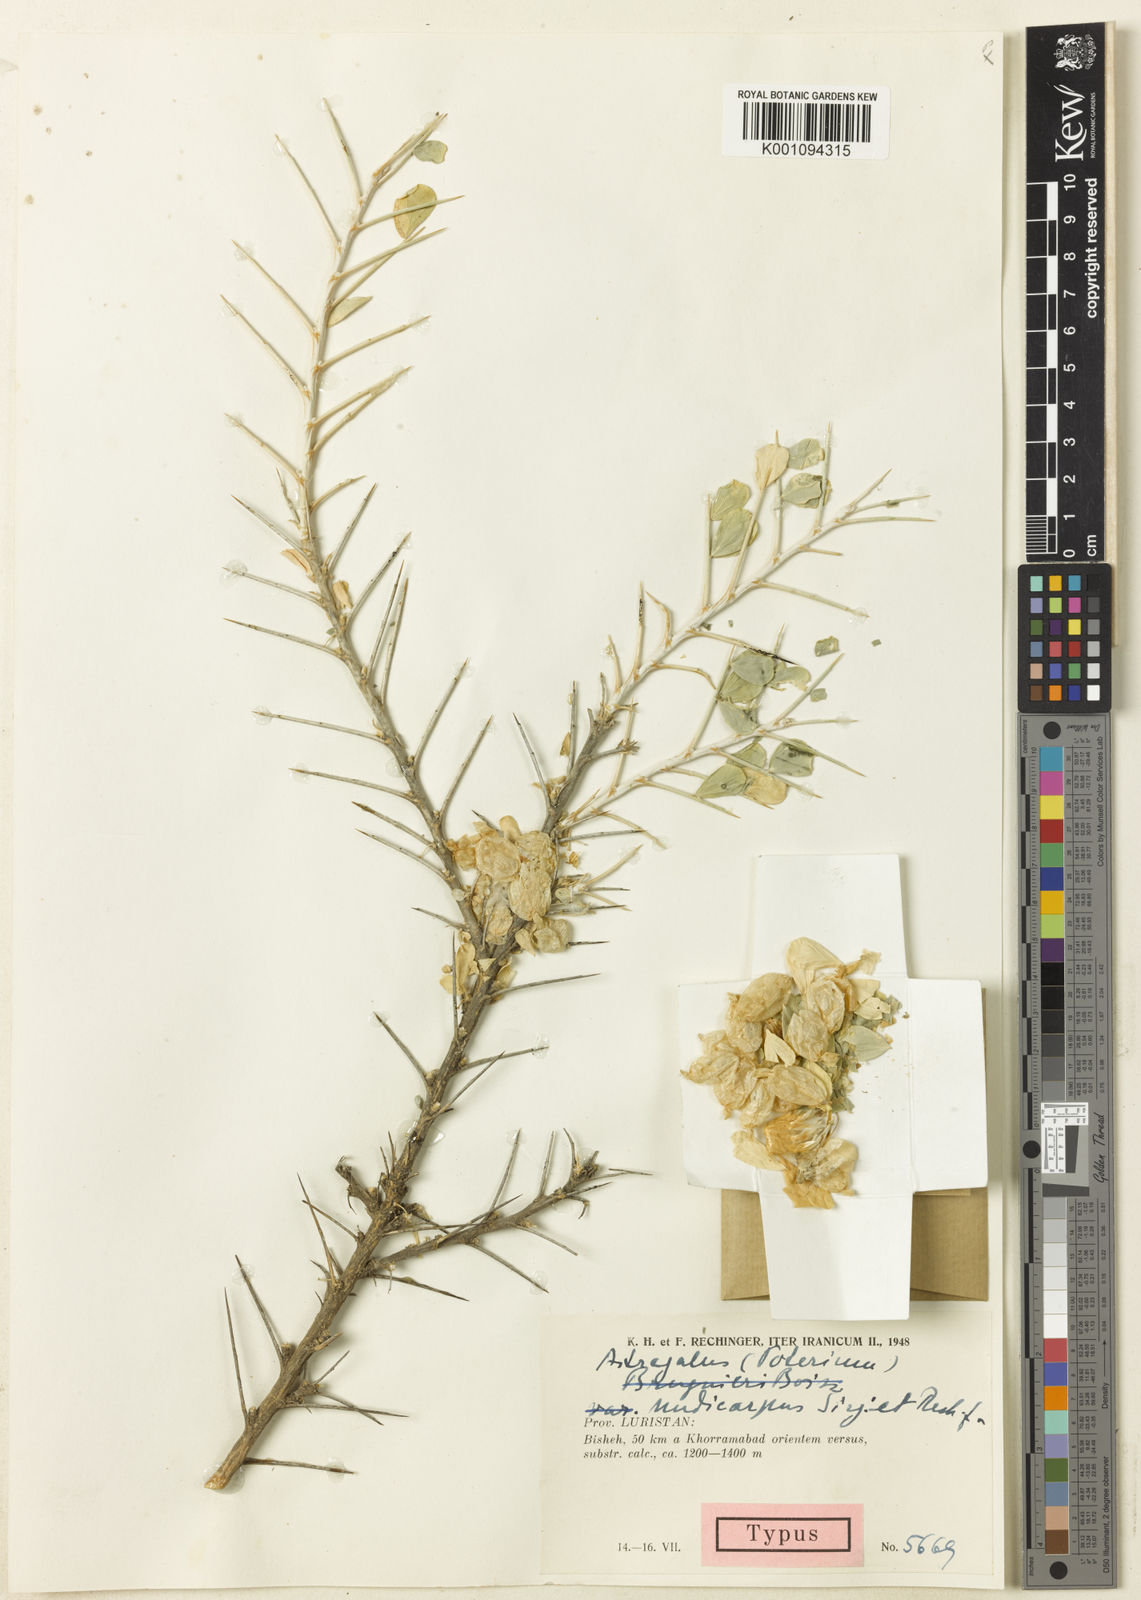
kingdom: Plantae
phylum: Tracheophyta
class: Magnoliopsida
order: Fabales
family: Fabaceae
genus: Astragalus
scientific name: Astragalus
